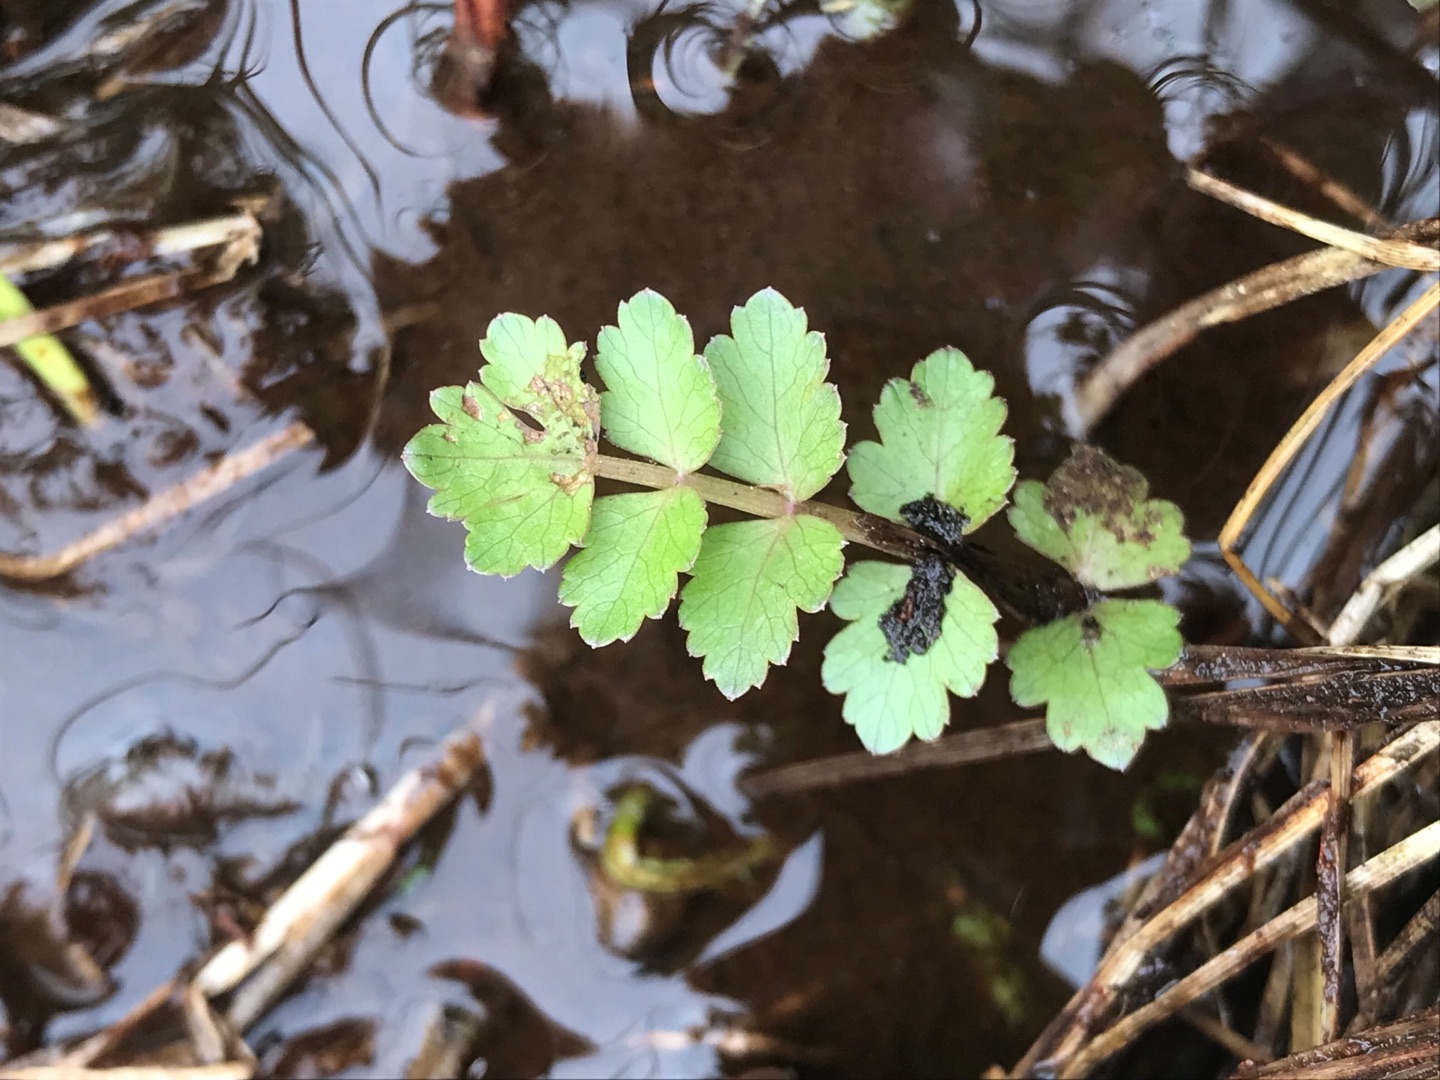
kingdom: Plantae
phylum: Tracheophyta
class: Magnoliopsida
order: Apiales
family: Apiaceae
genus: Berula
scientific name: Berula erecta
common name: Sideskærm
